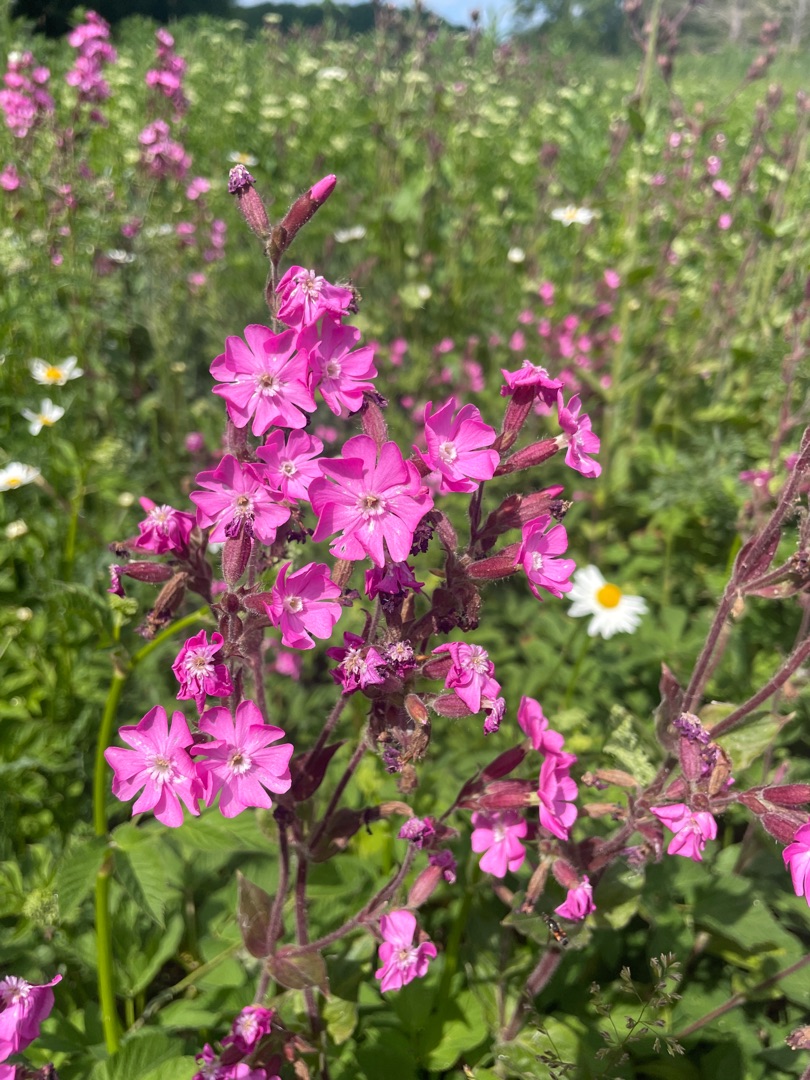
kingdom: Plantae
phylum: Tracheophyta
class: Magnoliopsida
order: Caryophyllales
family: Caryophyllaceae
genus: Silene
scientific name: Silene dioica
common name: Dagpragtstjerne
